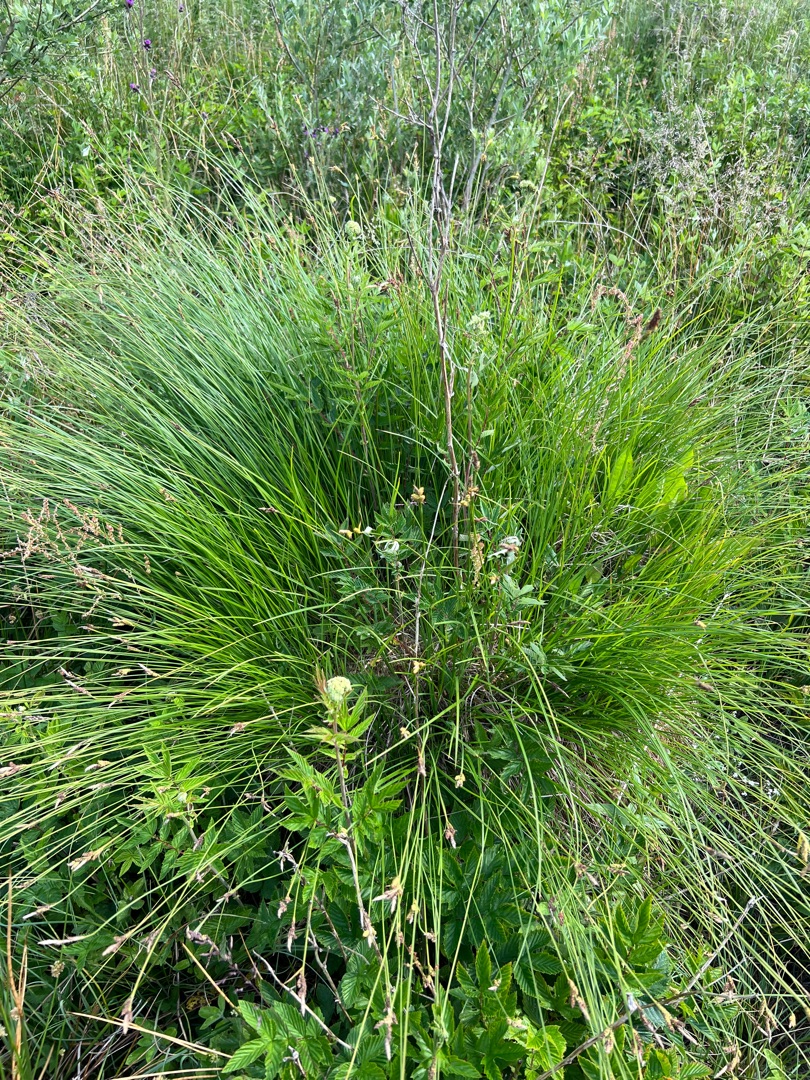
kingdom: Plantae
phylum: Tracheophyta
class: Liliopsida
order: Poales
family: Cyperaceae
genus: Carex
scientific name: Carex cespitosa
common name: Tue-star
